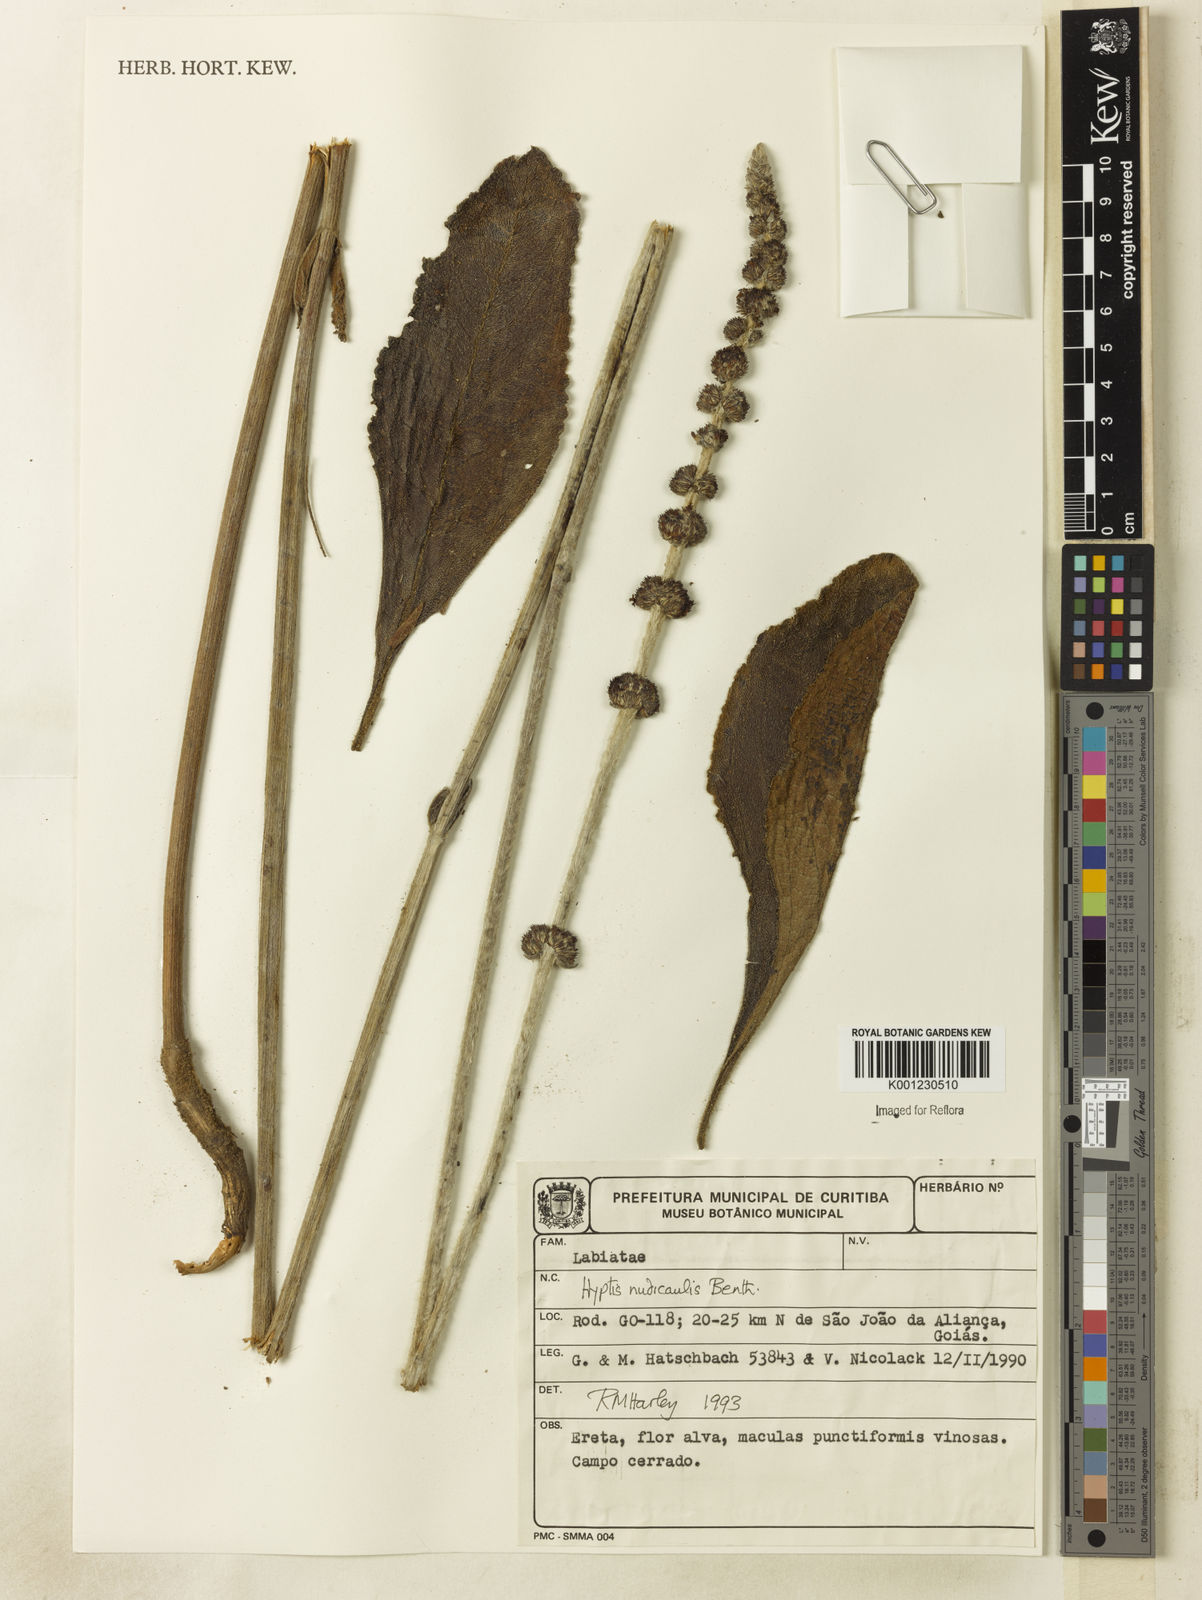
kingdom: Plantae
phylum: Tracheophyta
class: Magnoliopsida
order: Lamiales
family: Lamiaceae
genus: Hyptis
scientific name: Hyptis nudicaulis
